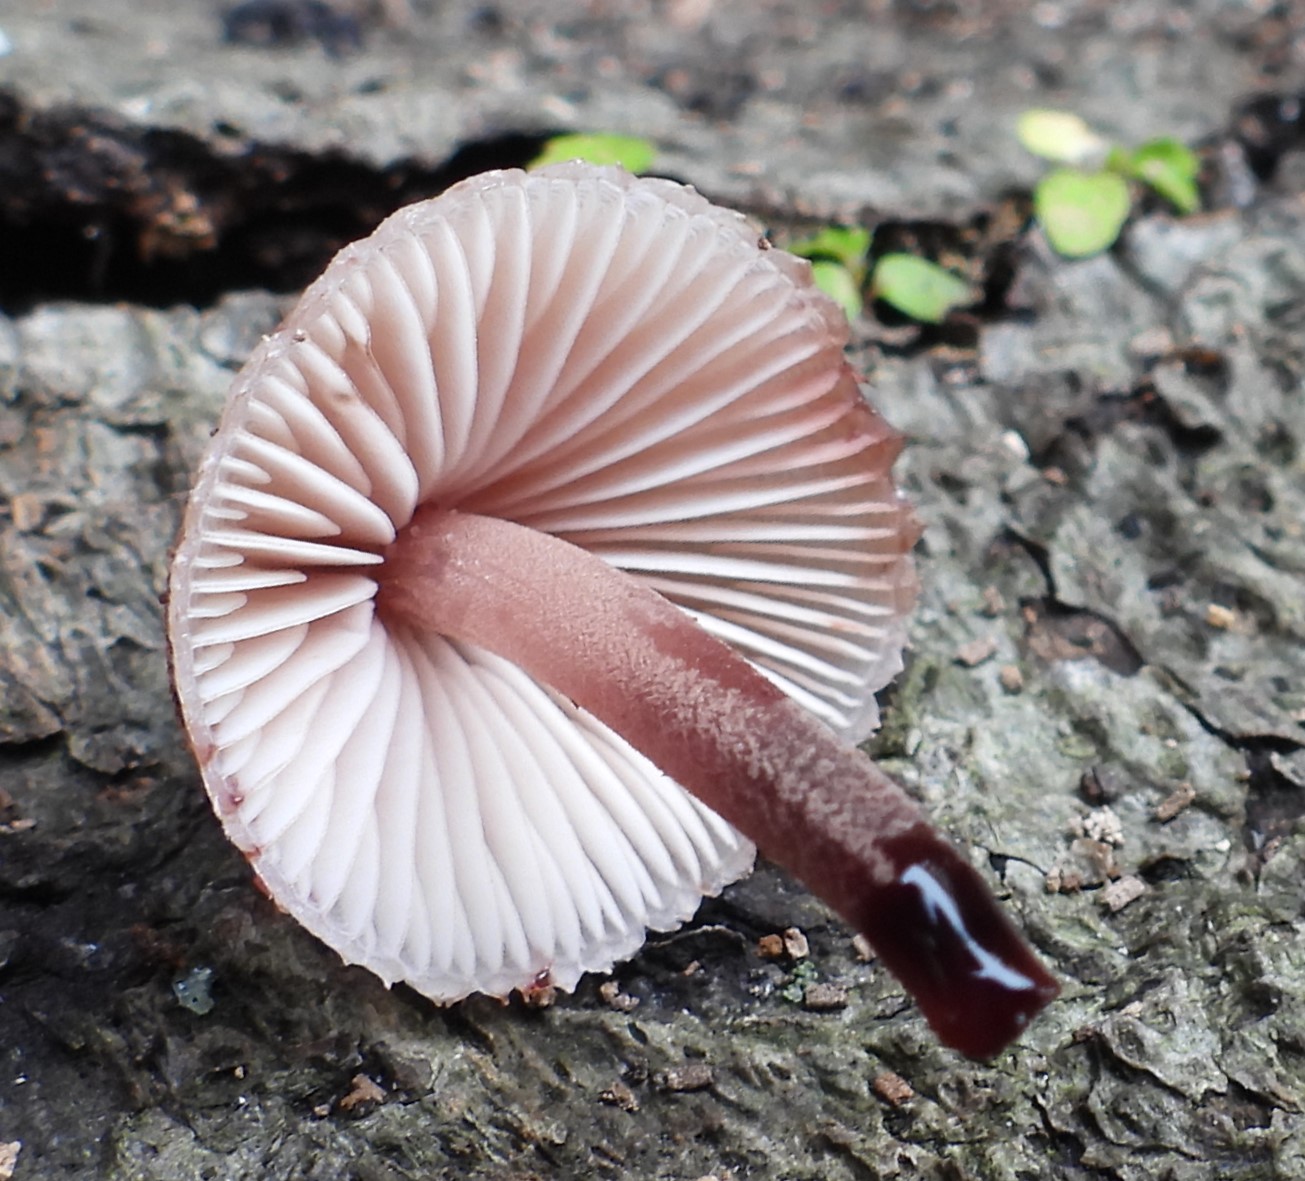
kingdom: Fungi
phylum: Basidiomycota
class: Agaricomycetes
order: Agaricales
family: Mycenaceae
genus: Mycena
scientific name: Mycena haematopus
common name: blødende huesvamp
